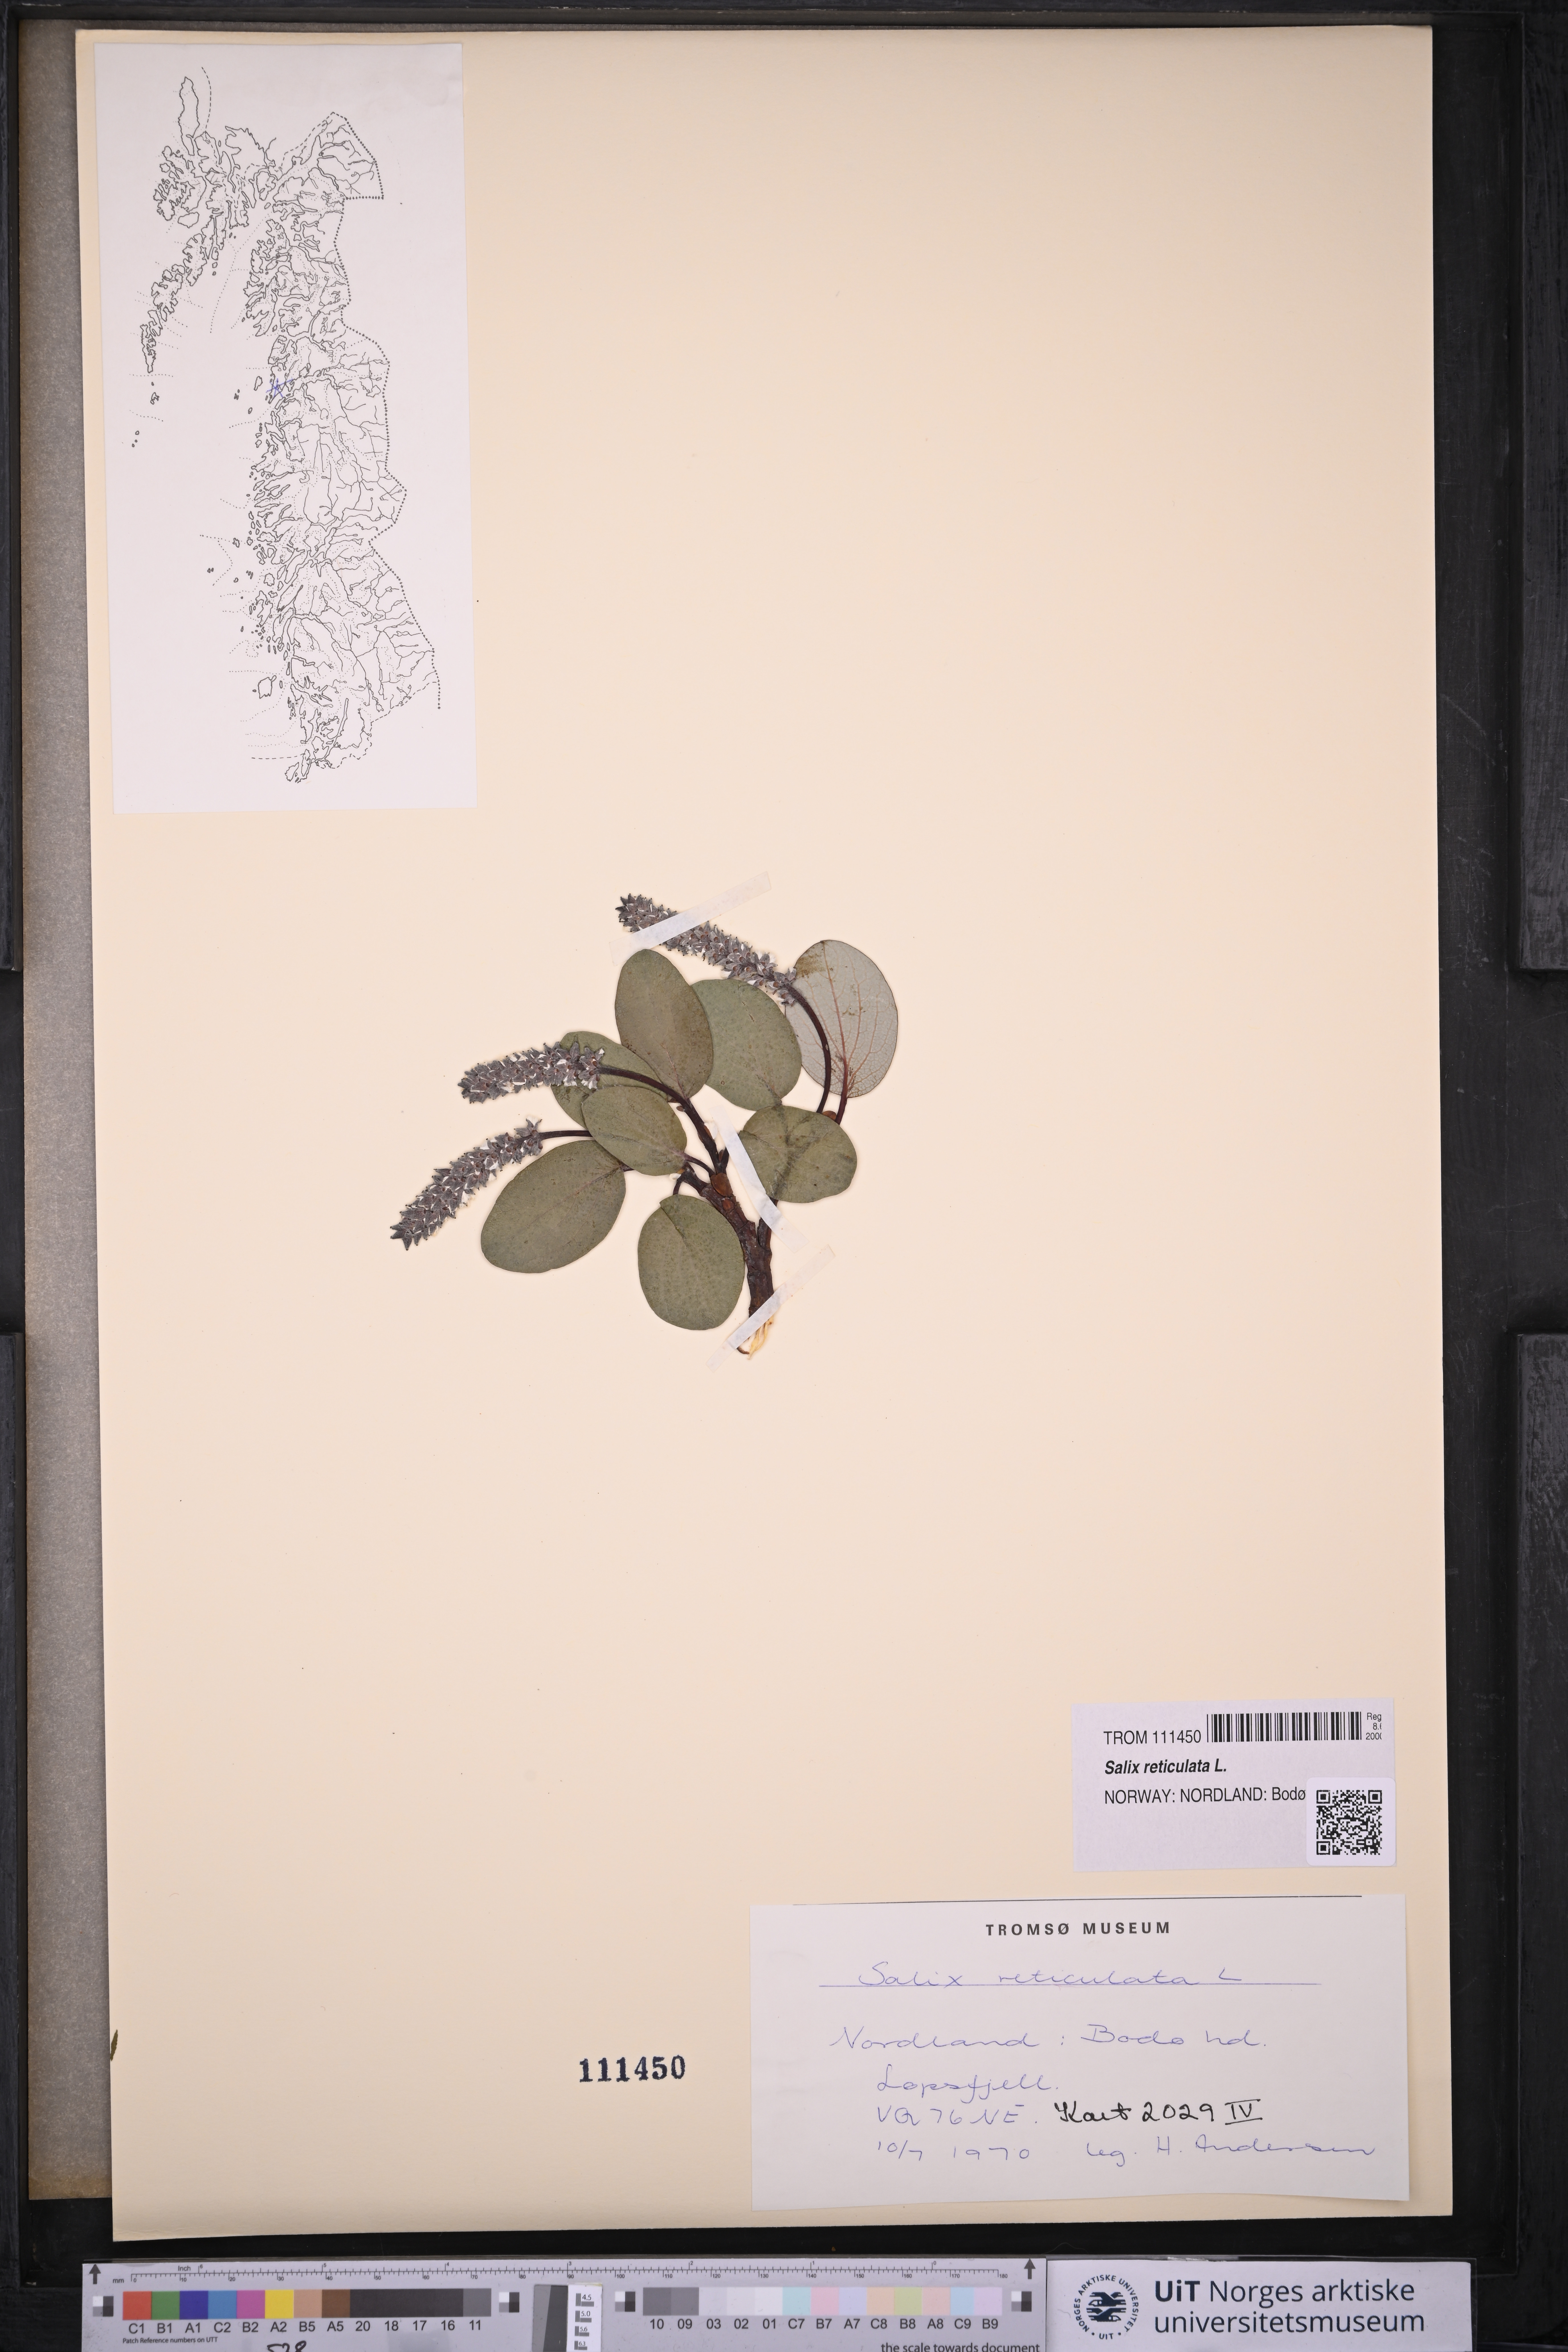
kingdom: Plantae
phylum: Tracheophyta
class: Magnoliopsida
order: Malpighiales
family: Salicaceae
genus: Salix
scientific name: Salix reticulata
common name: Net-leaved willow
